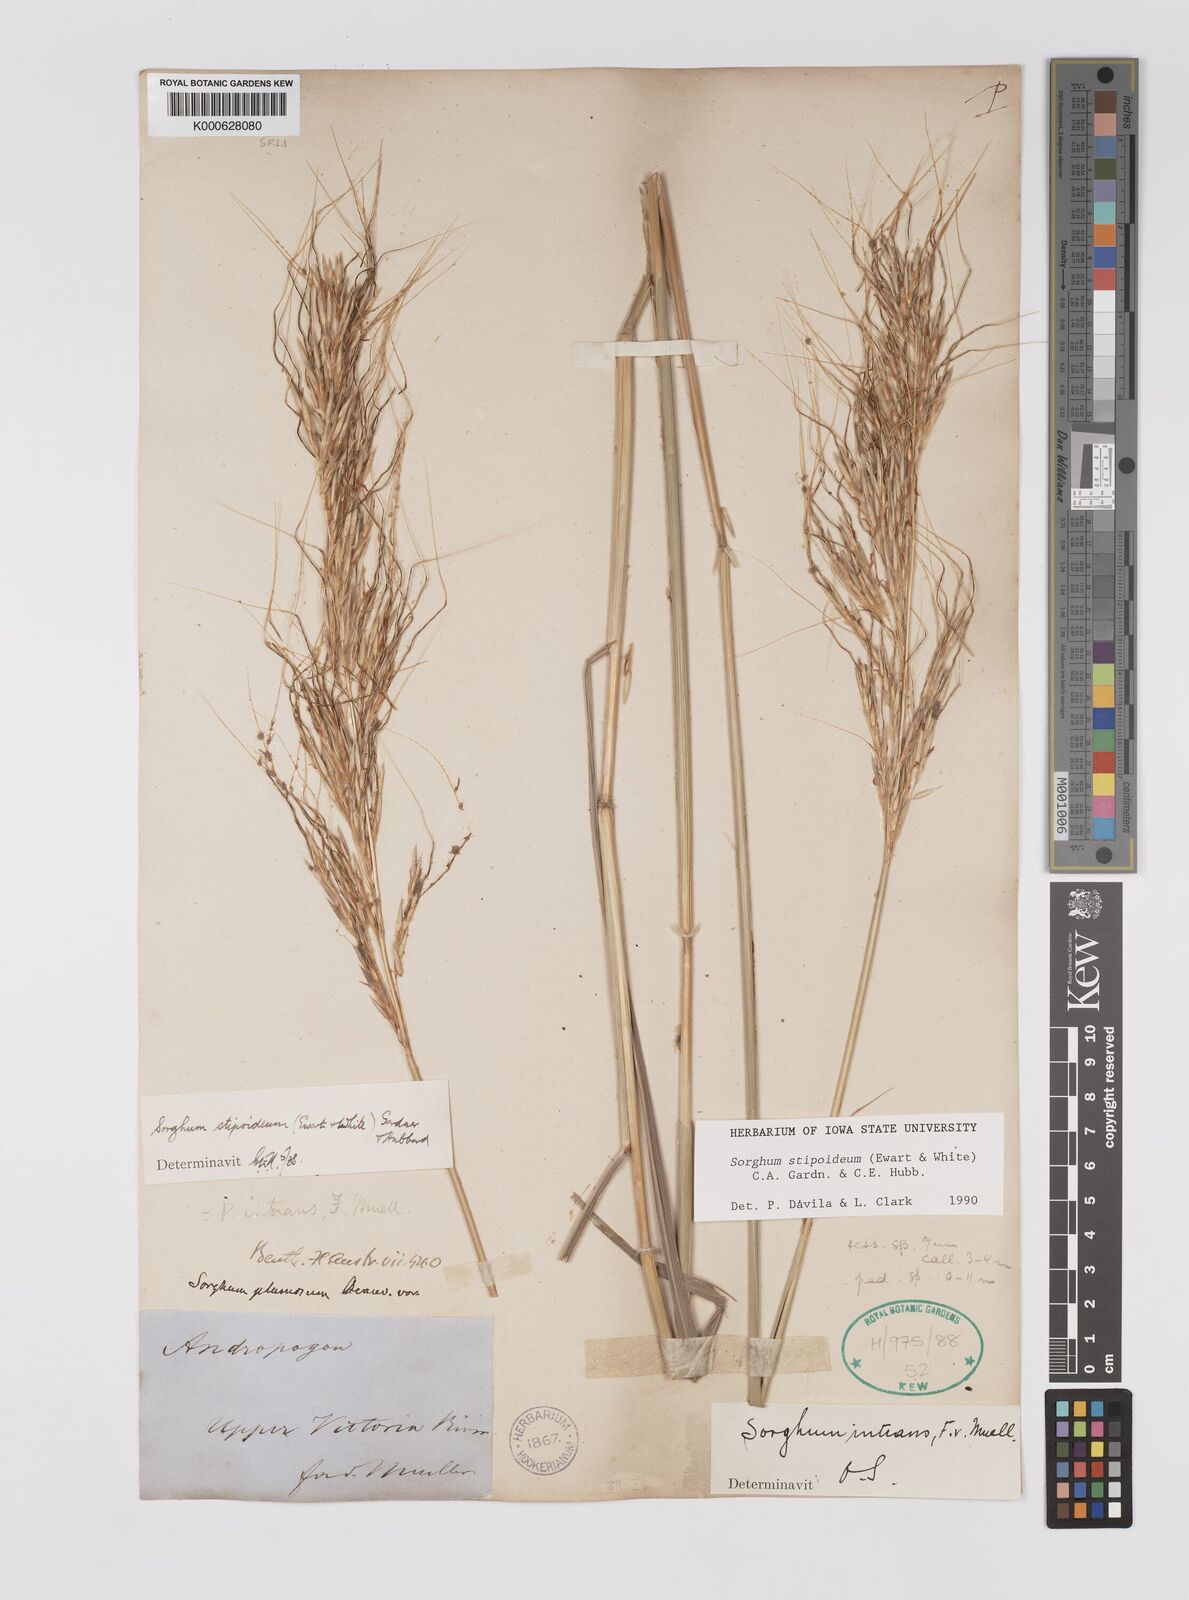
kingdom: Plantae
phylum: Tracheophyta
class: Liliopsida
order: Poales
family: Poaceae
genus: Sarga
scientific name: Sarga stipoidea
